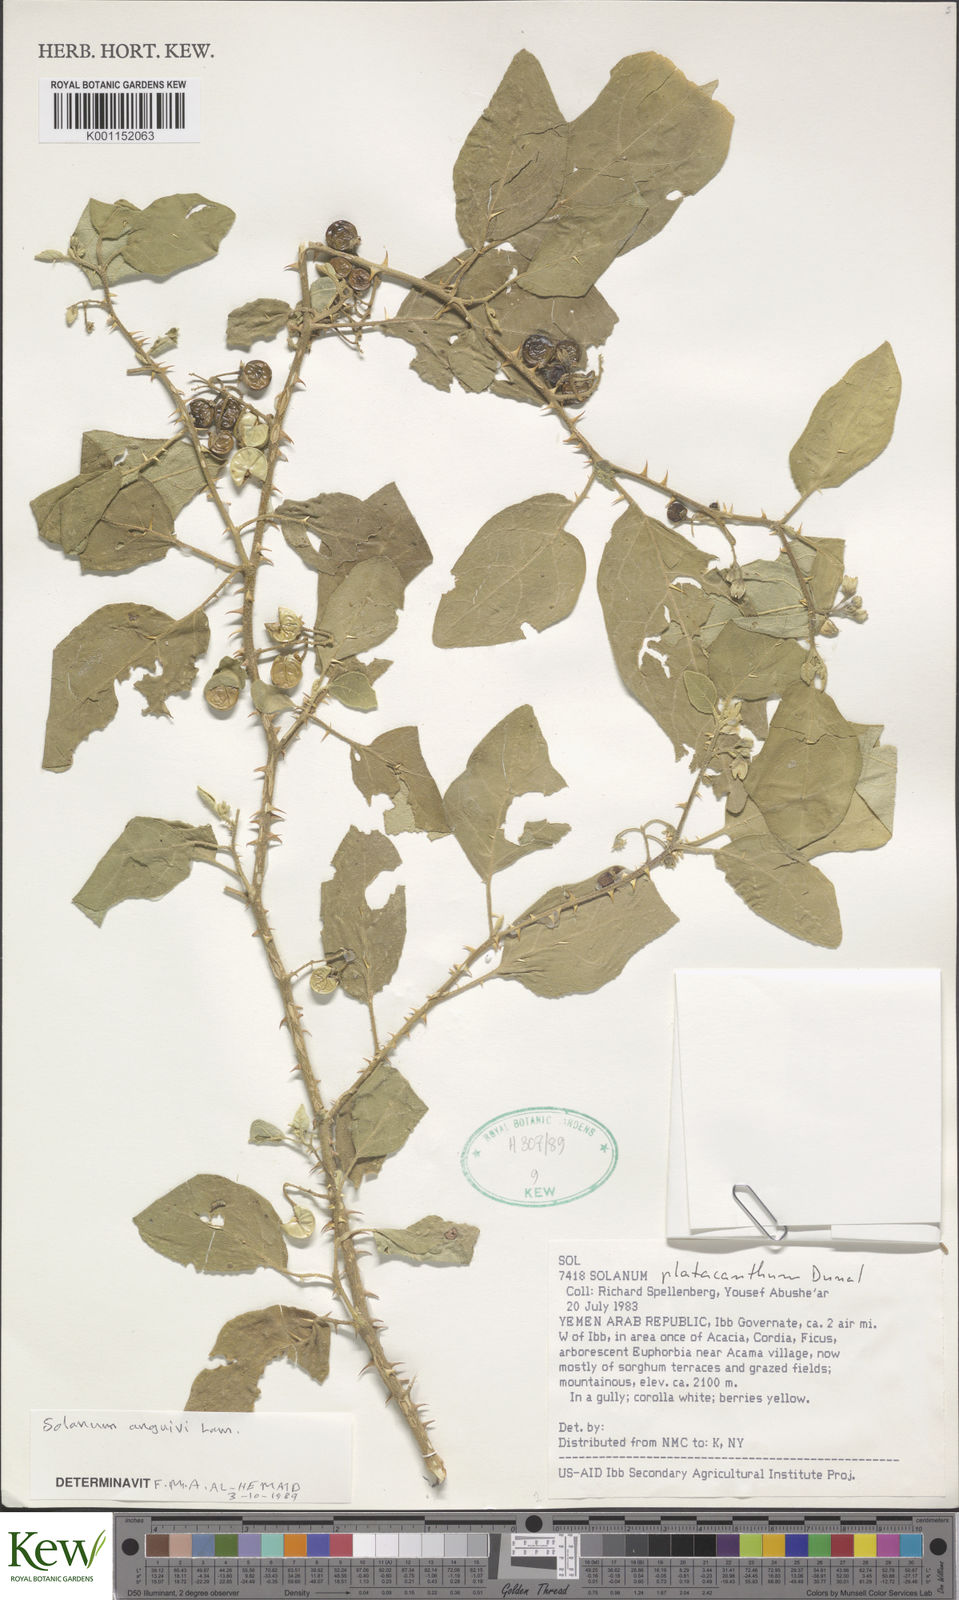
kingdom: Plantae
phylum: Tracheophyta
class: Magnoliopsida
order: Solanales
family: Solanaceae
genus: Solanum
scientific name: Solanum anguivi
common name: Forest bitterberry
